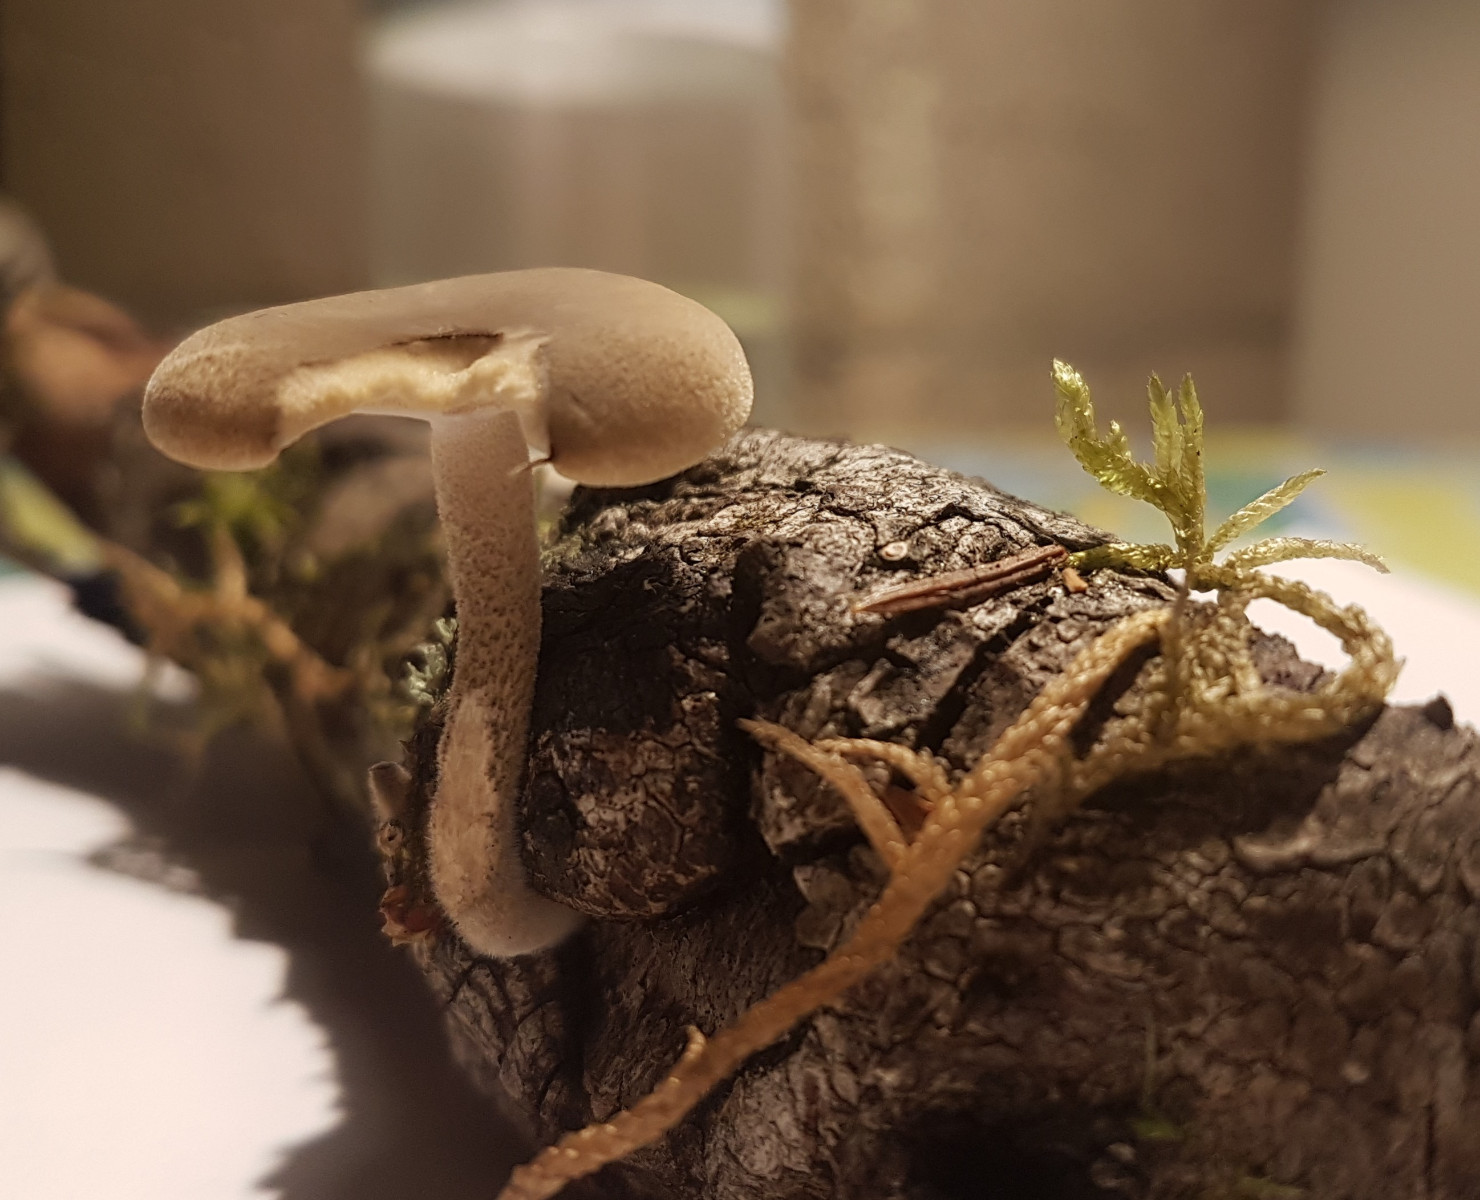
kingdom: Fungi
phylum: Basidiomycota
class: Agaricomycetes
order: Polyporales
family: Polyporaceae
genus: Lentinus
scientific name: Lentinus substrictus
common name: forårs-stilkporesvamp
